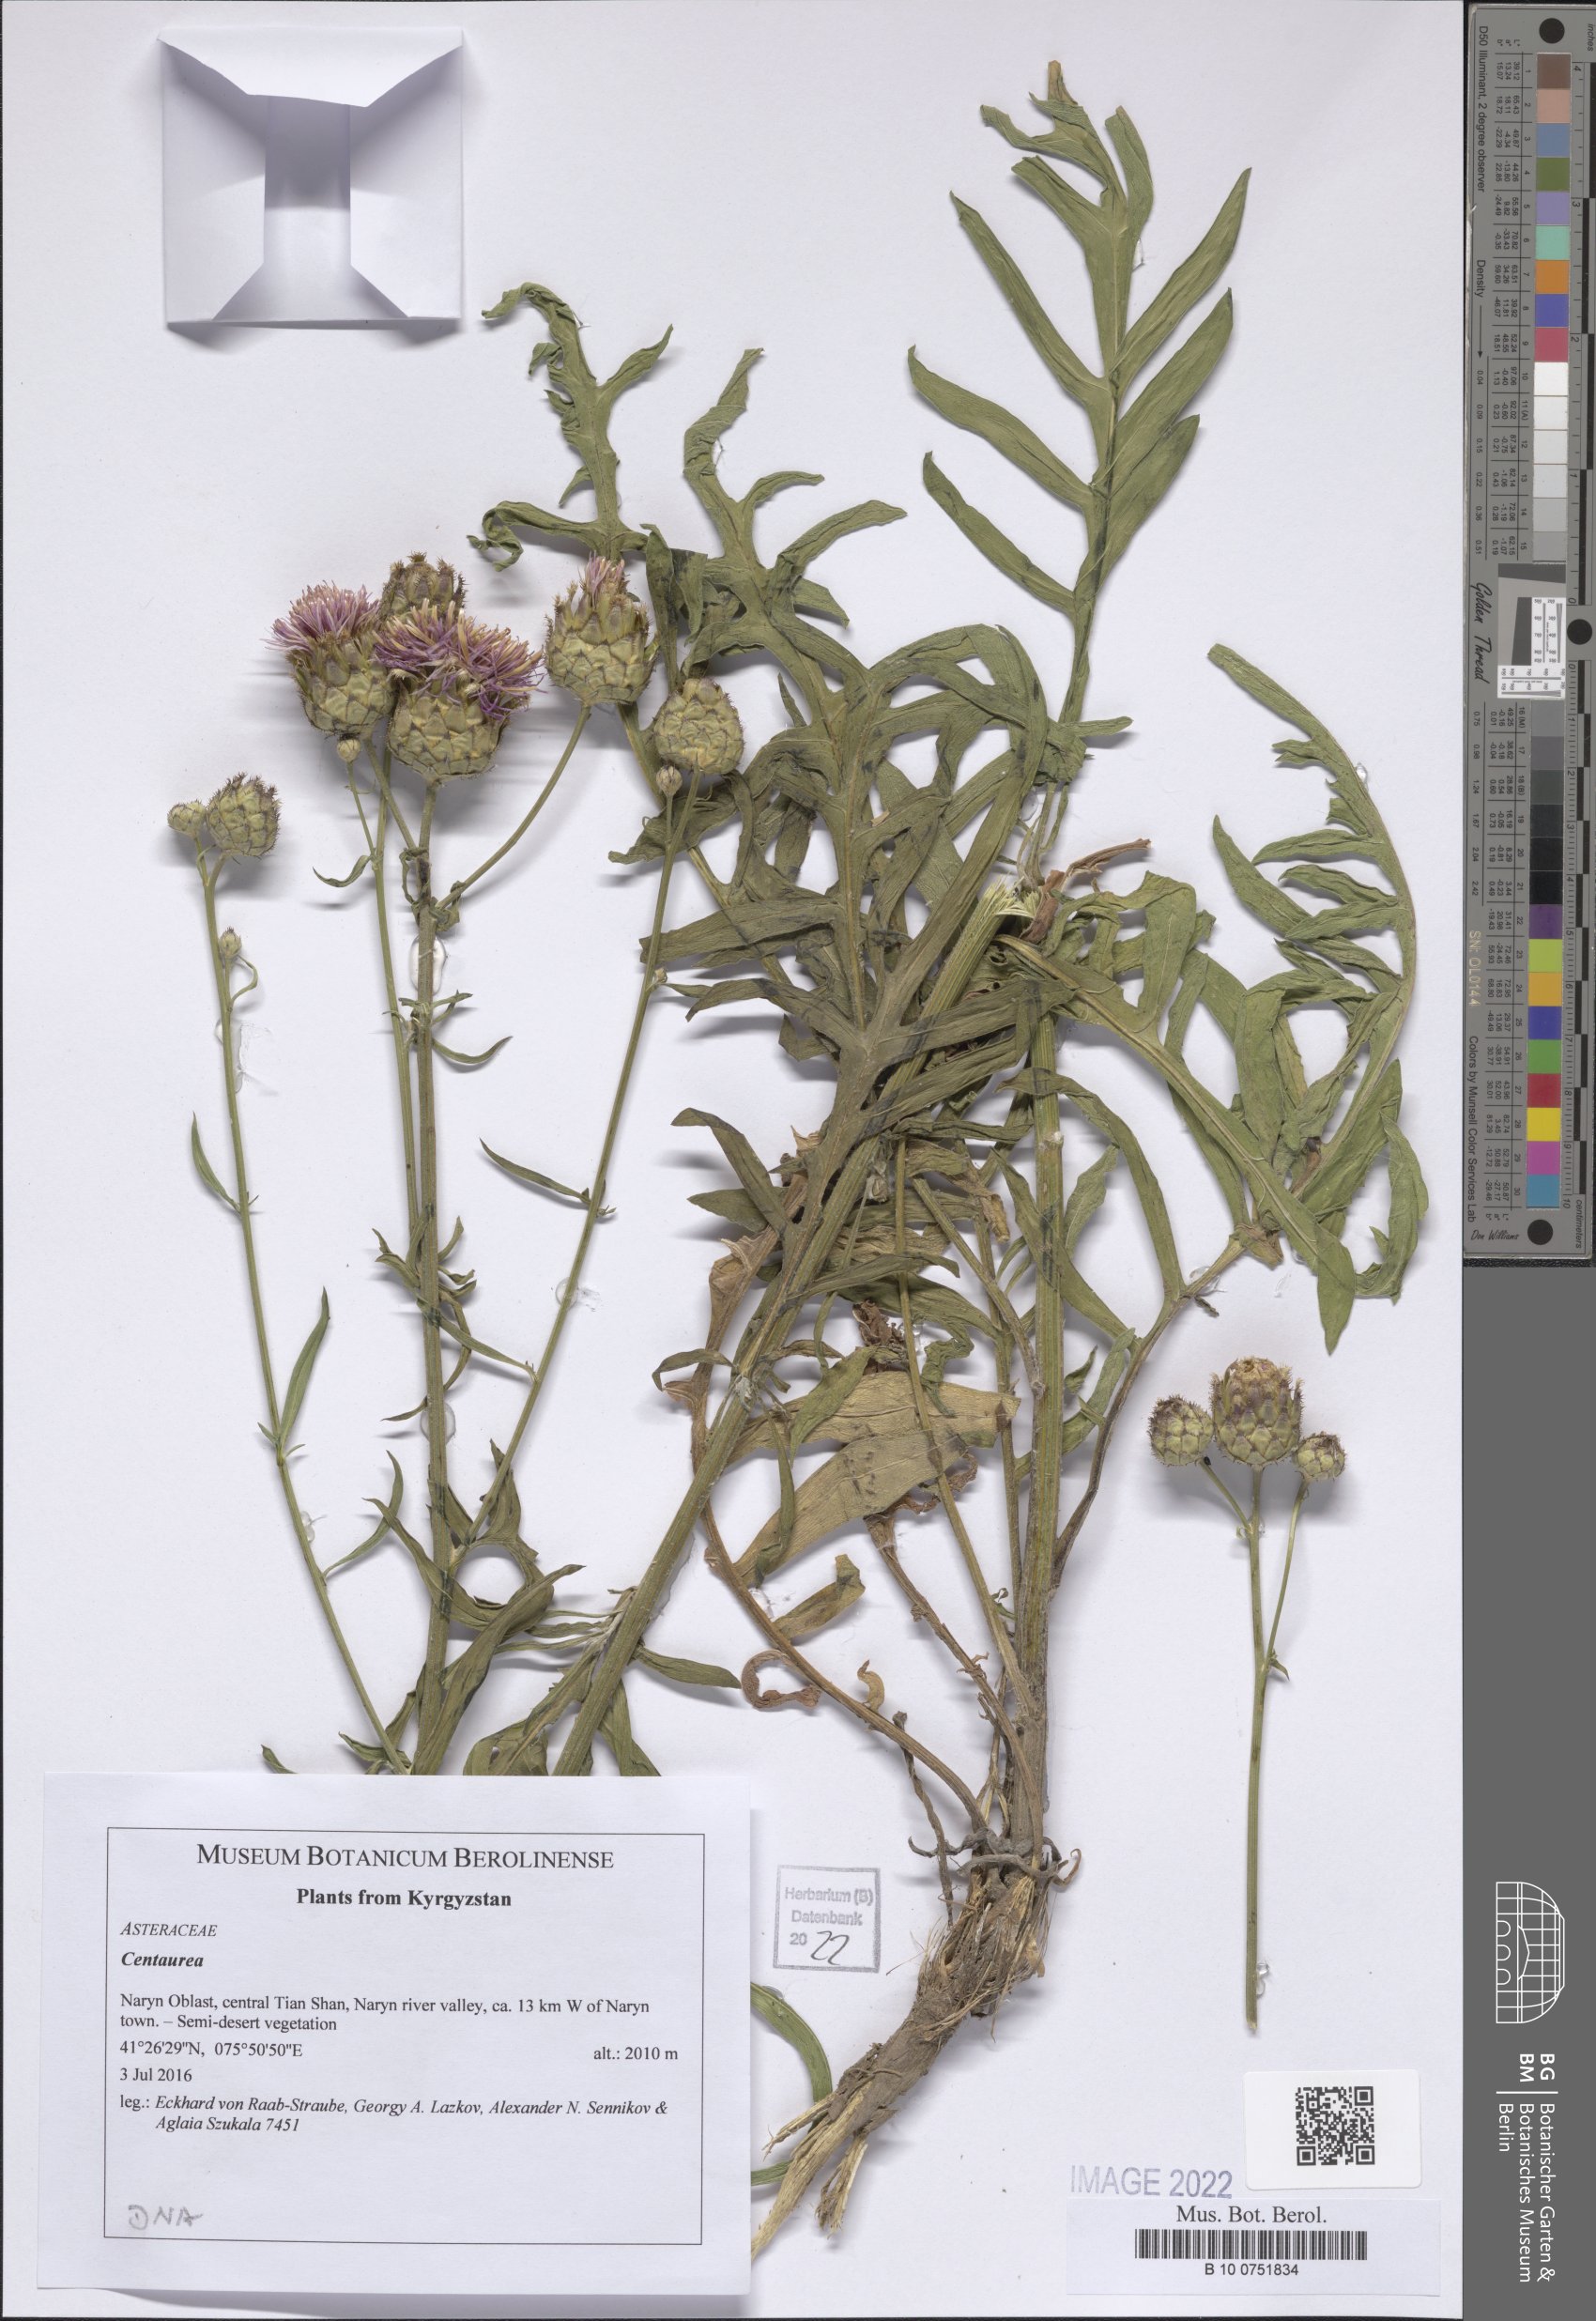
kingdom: Plantae
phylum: Tracheophyta
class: Magnoliopsida
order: Asterales
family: Asteraceae
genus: Centaurea
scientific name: Centaurea
